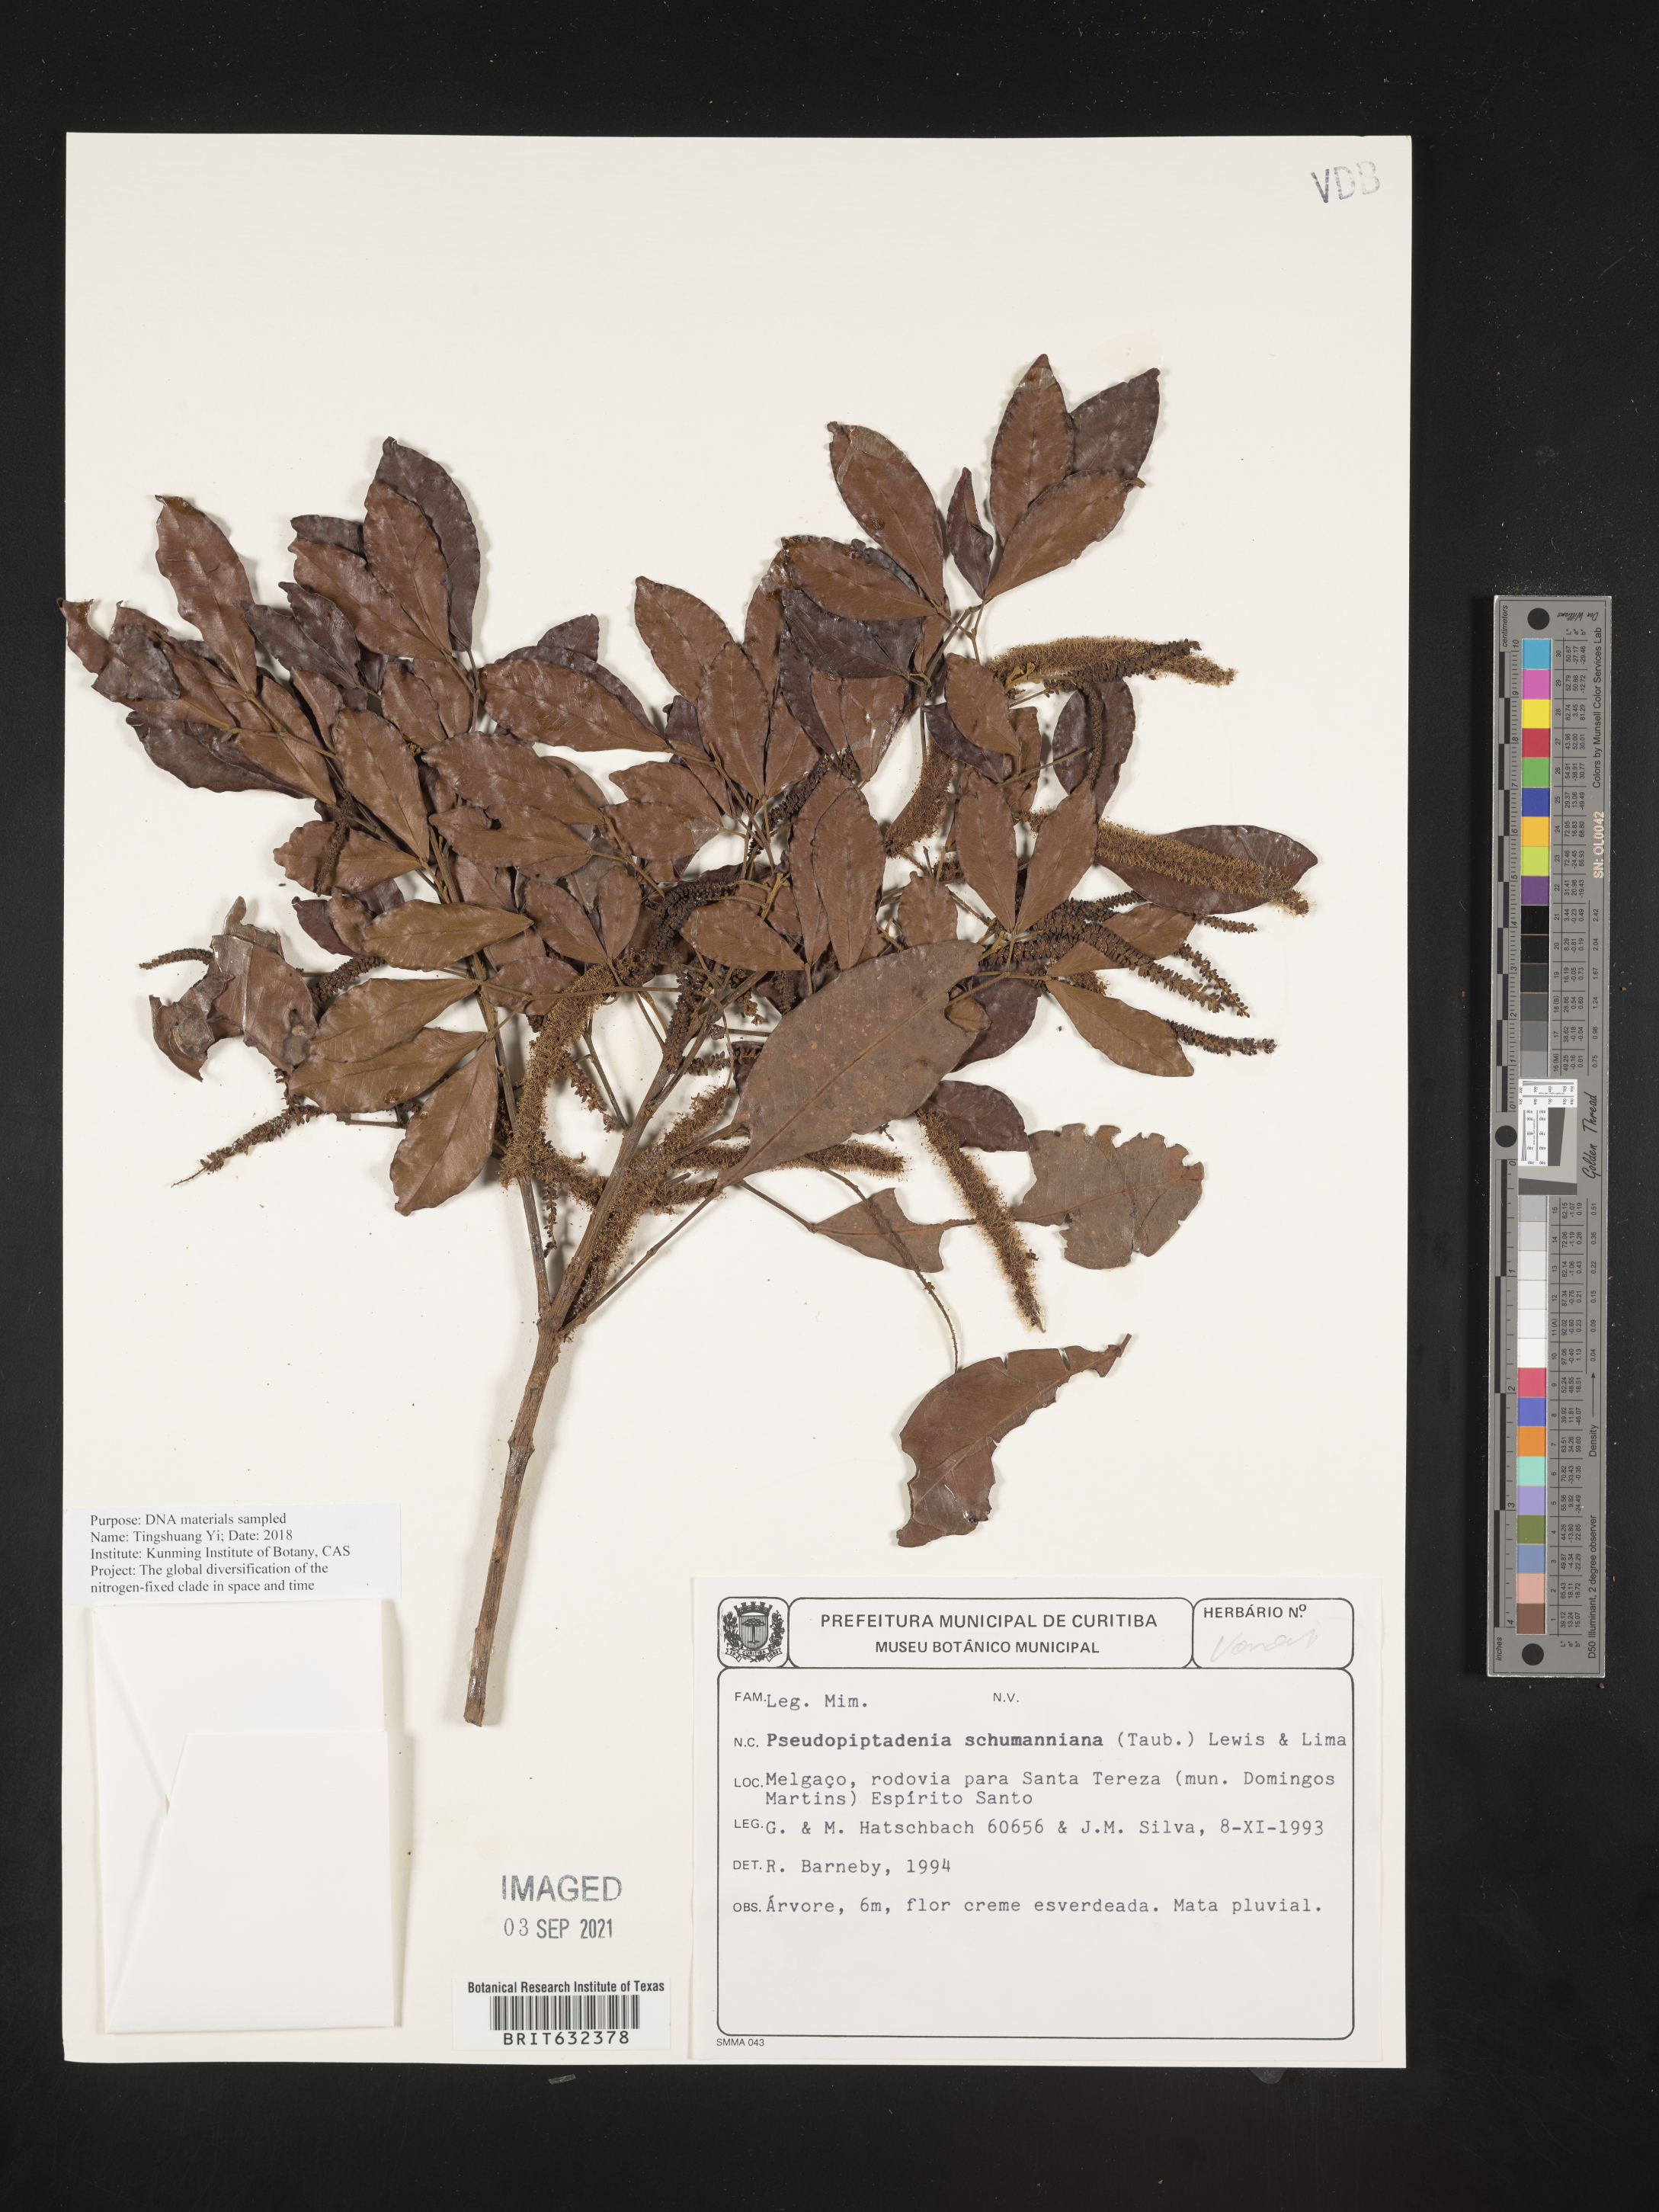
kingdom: Plantae
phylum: Tracheophyta
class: Magnoliopsida
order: Fabales
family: Fabaceae
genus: Pseudopiptadenia
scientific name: Pseudopiptadenia schumanniana
